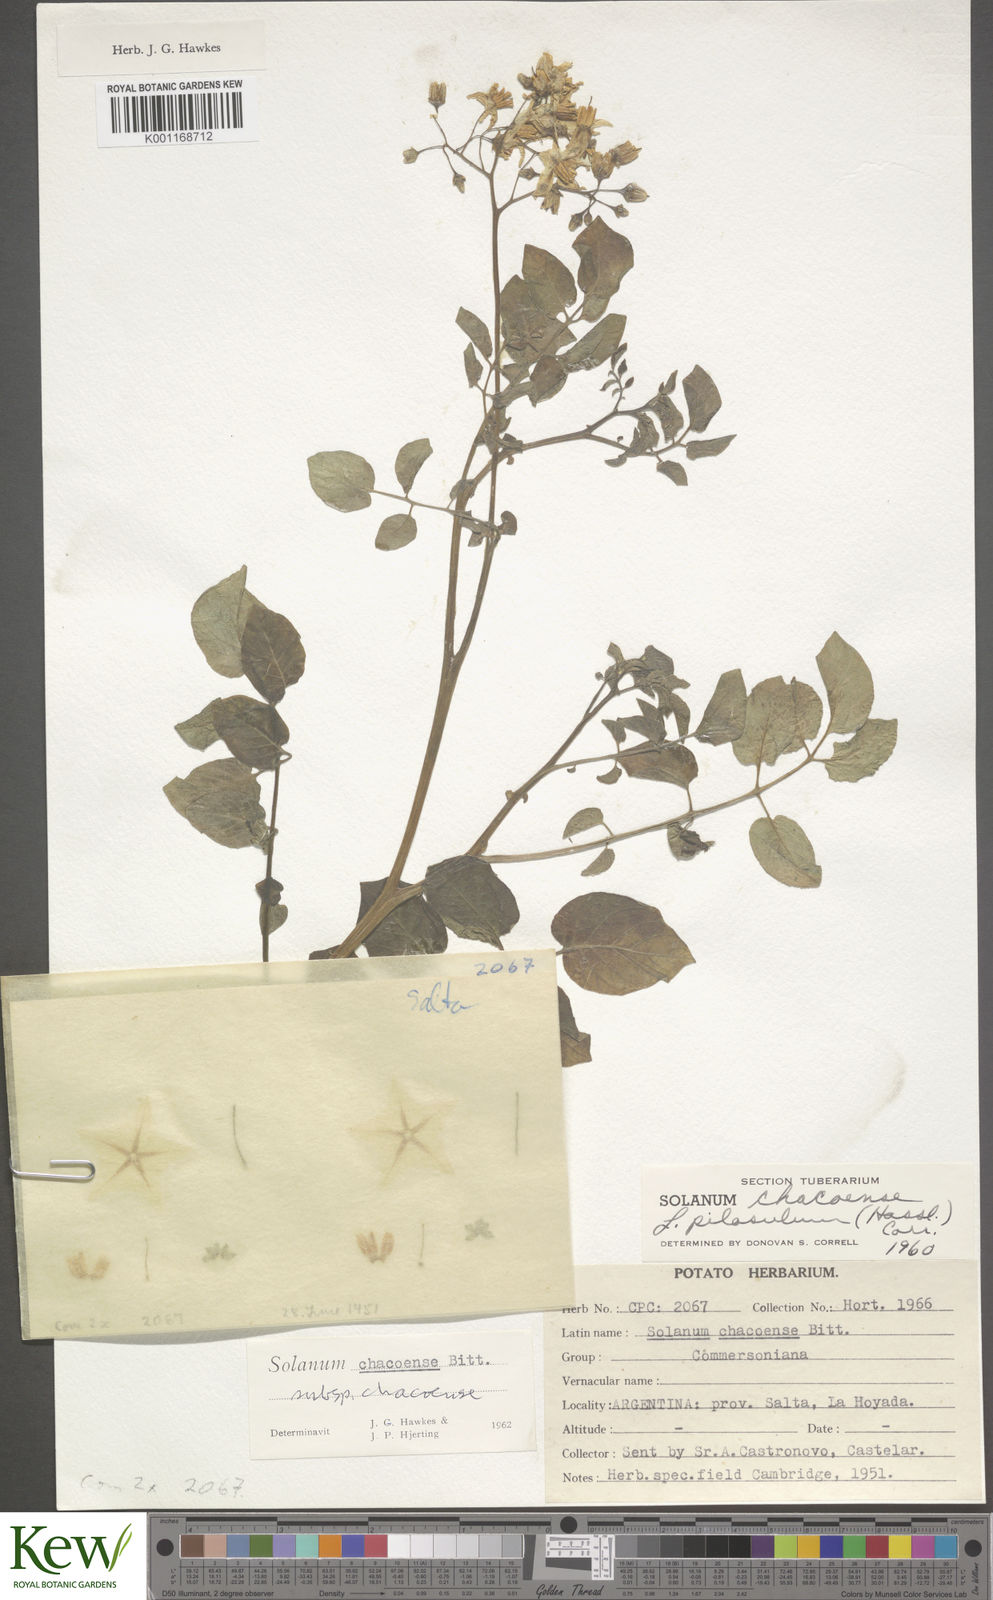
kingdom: Plantae
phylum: Tracheophyta
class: Magnoliopsida
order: Solanales
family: Solanaceae
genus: Solanum
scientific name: Solanum chacoense
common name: Chaco potato
